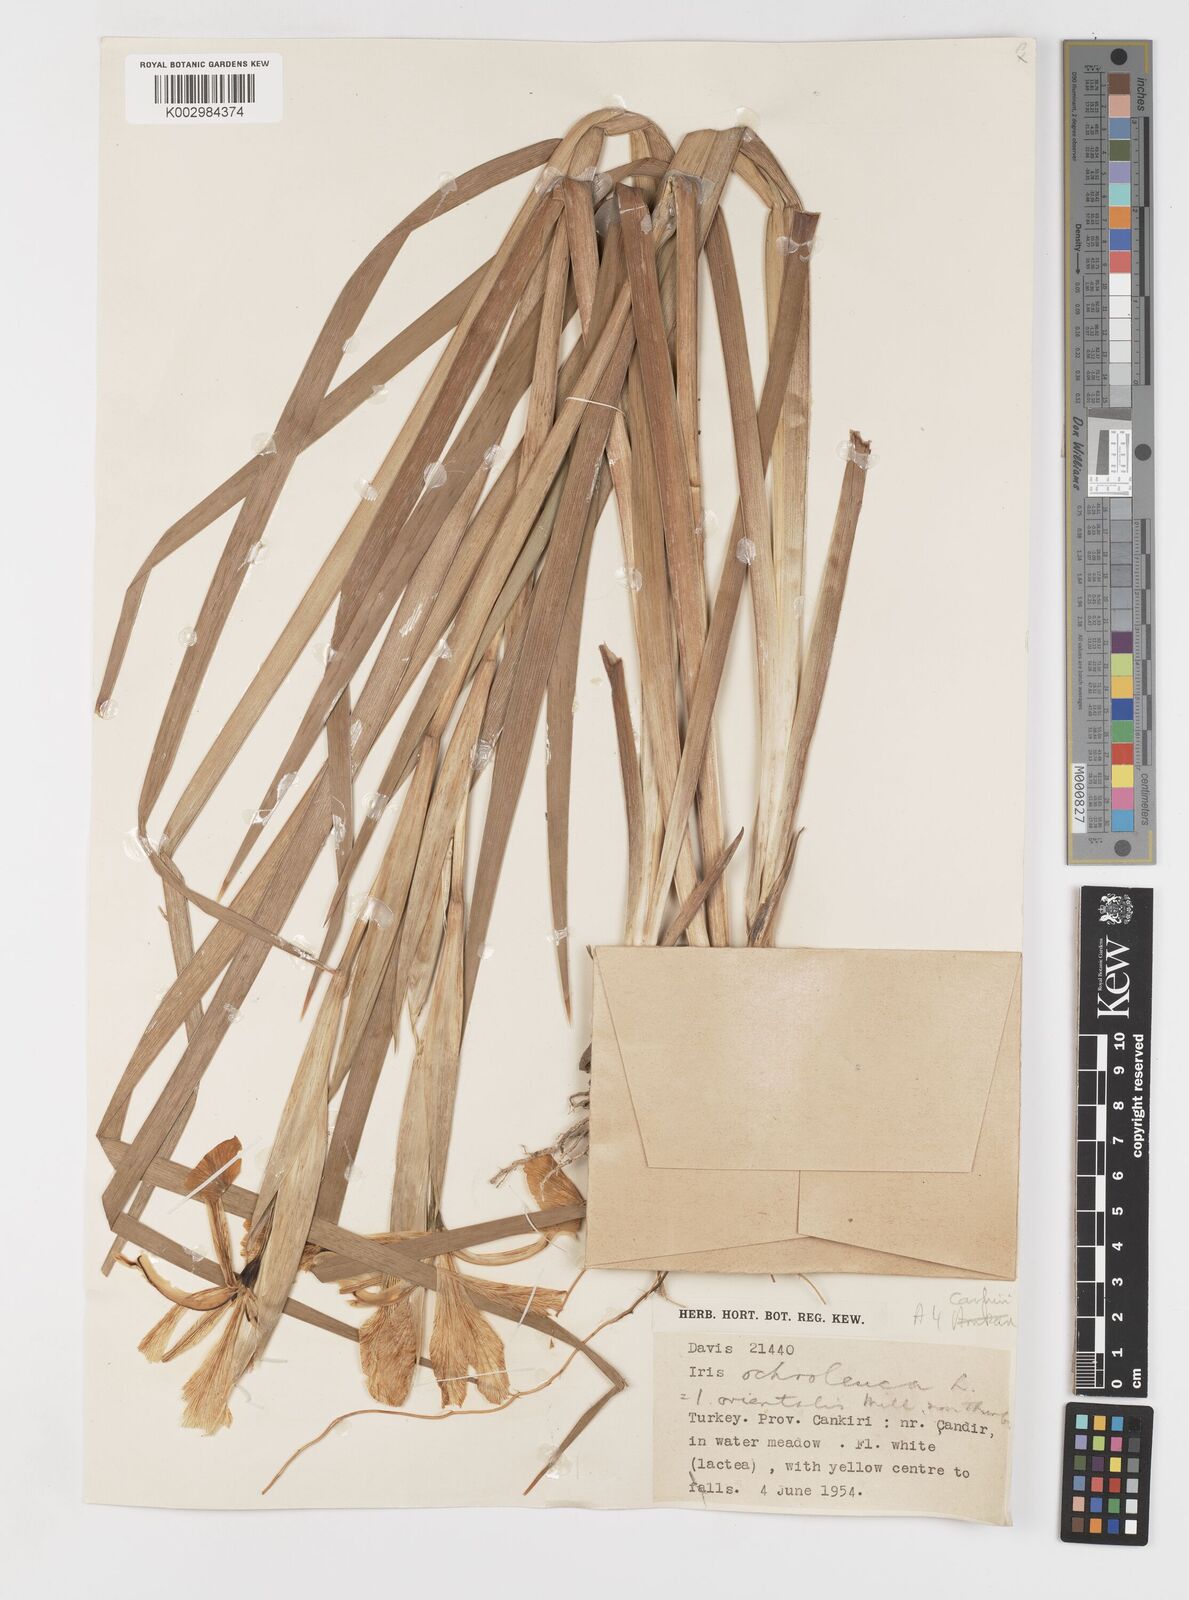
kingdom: Plantae
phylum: Tracheophyta
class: Liliopsida
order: Asparagales
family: Iridaceae
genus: Iris
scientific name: Iris orientalis
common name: Turkish iris
